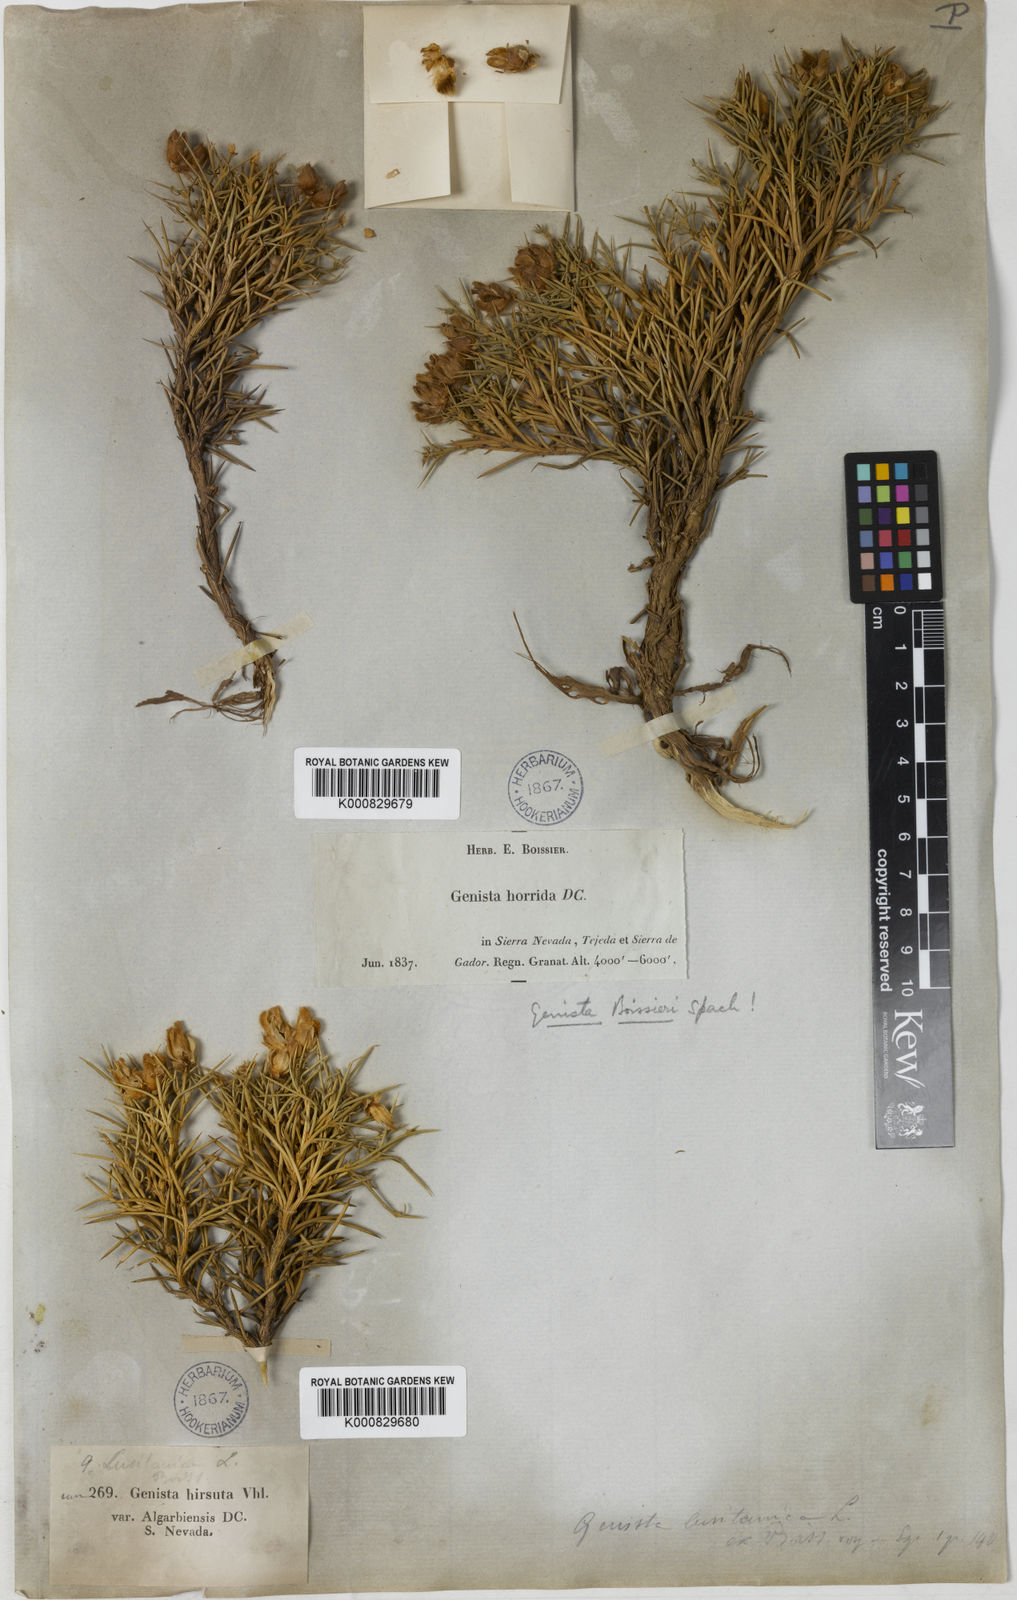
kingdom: Plantae
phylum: Tracheophyta
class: Magnoliopsida
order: Fabales
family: Fabaceae
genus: Echinospartum
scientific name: Echinospartum boissieri
